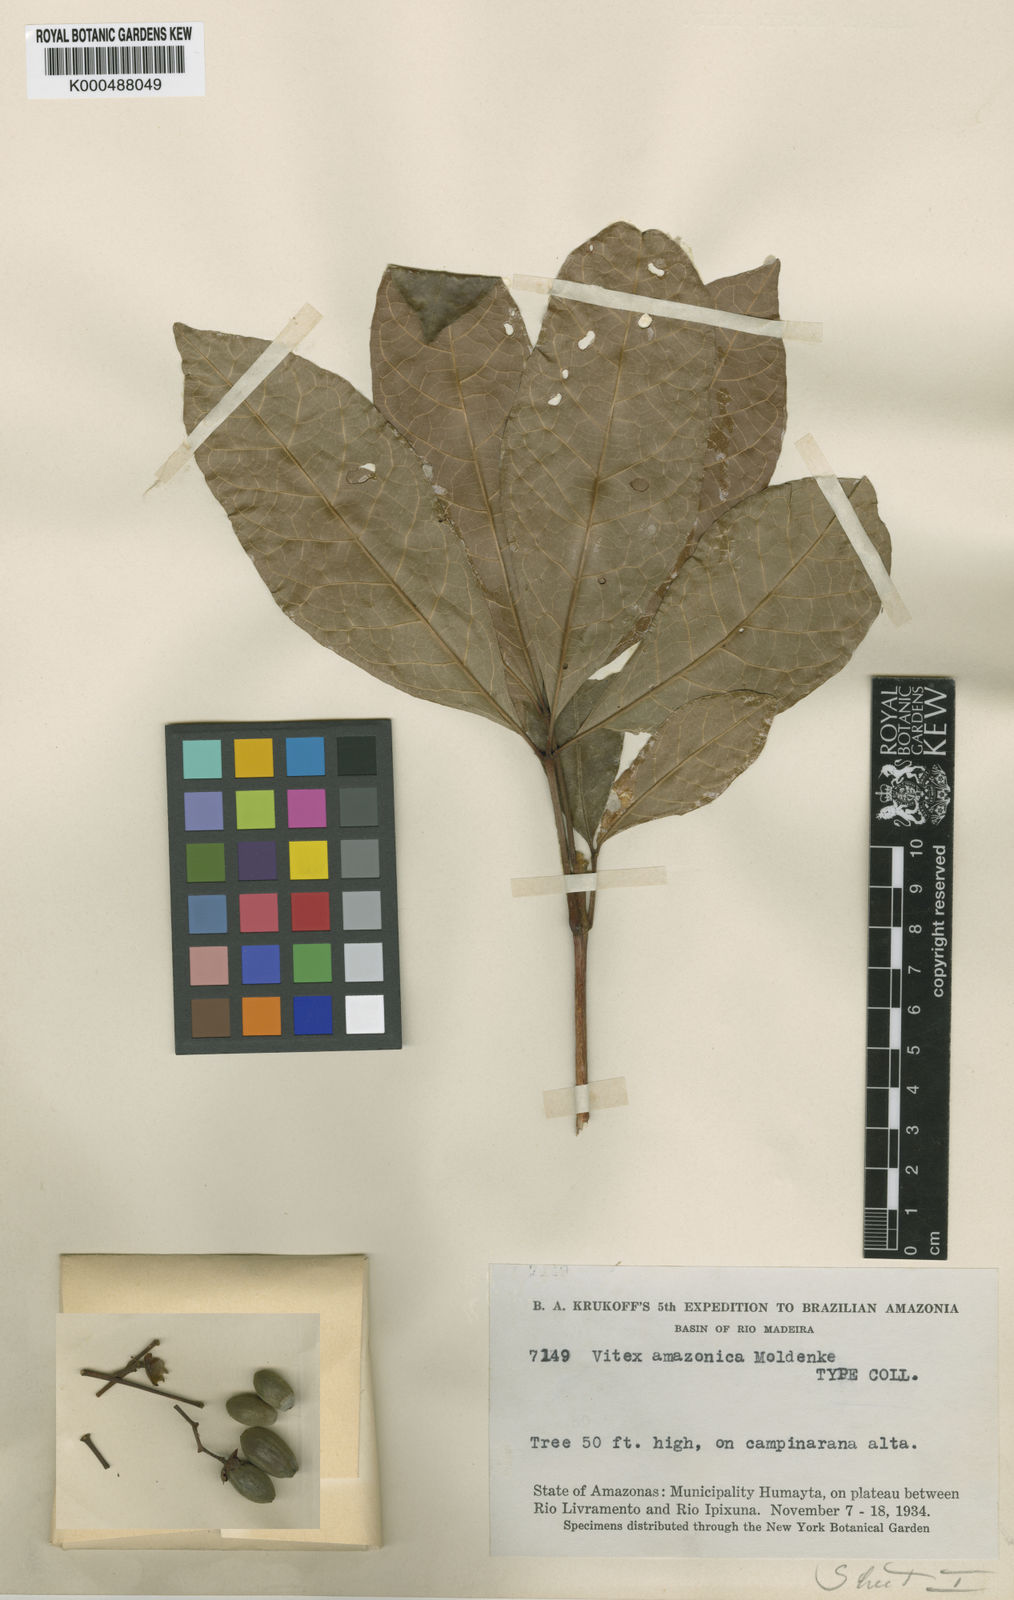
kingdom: Plantae
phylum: Tracheophyta
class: Magnoliopsida
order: Lamiales
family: Lamiaceae
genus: Vitex
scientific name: Vitex klugii
